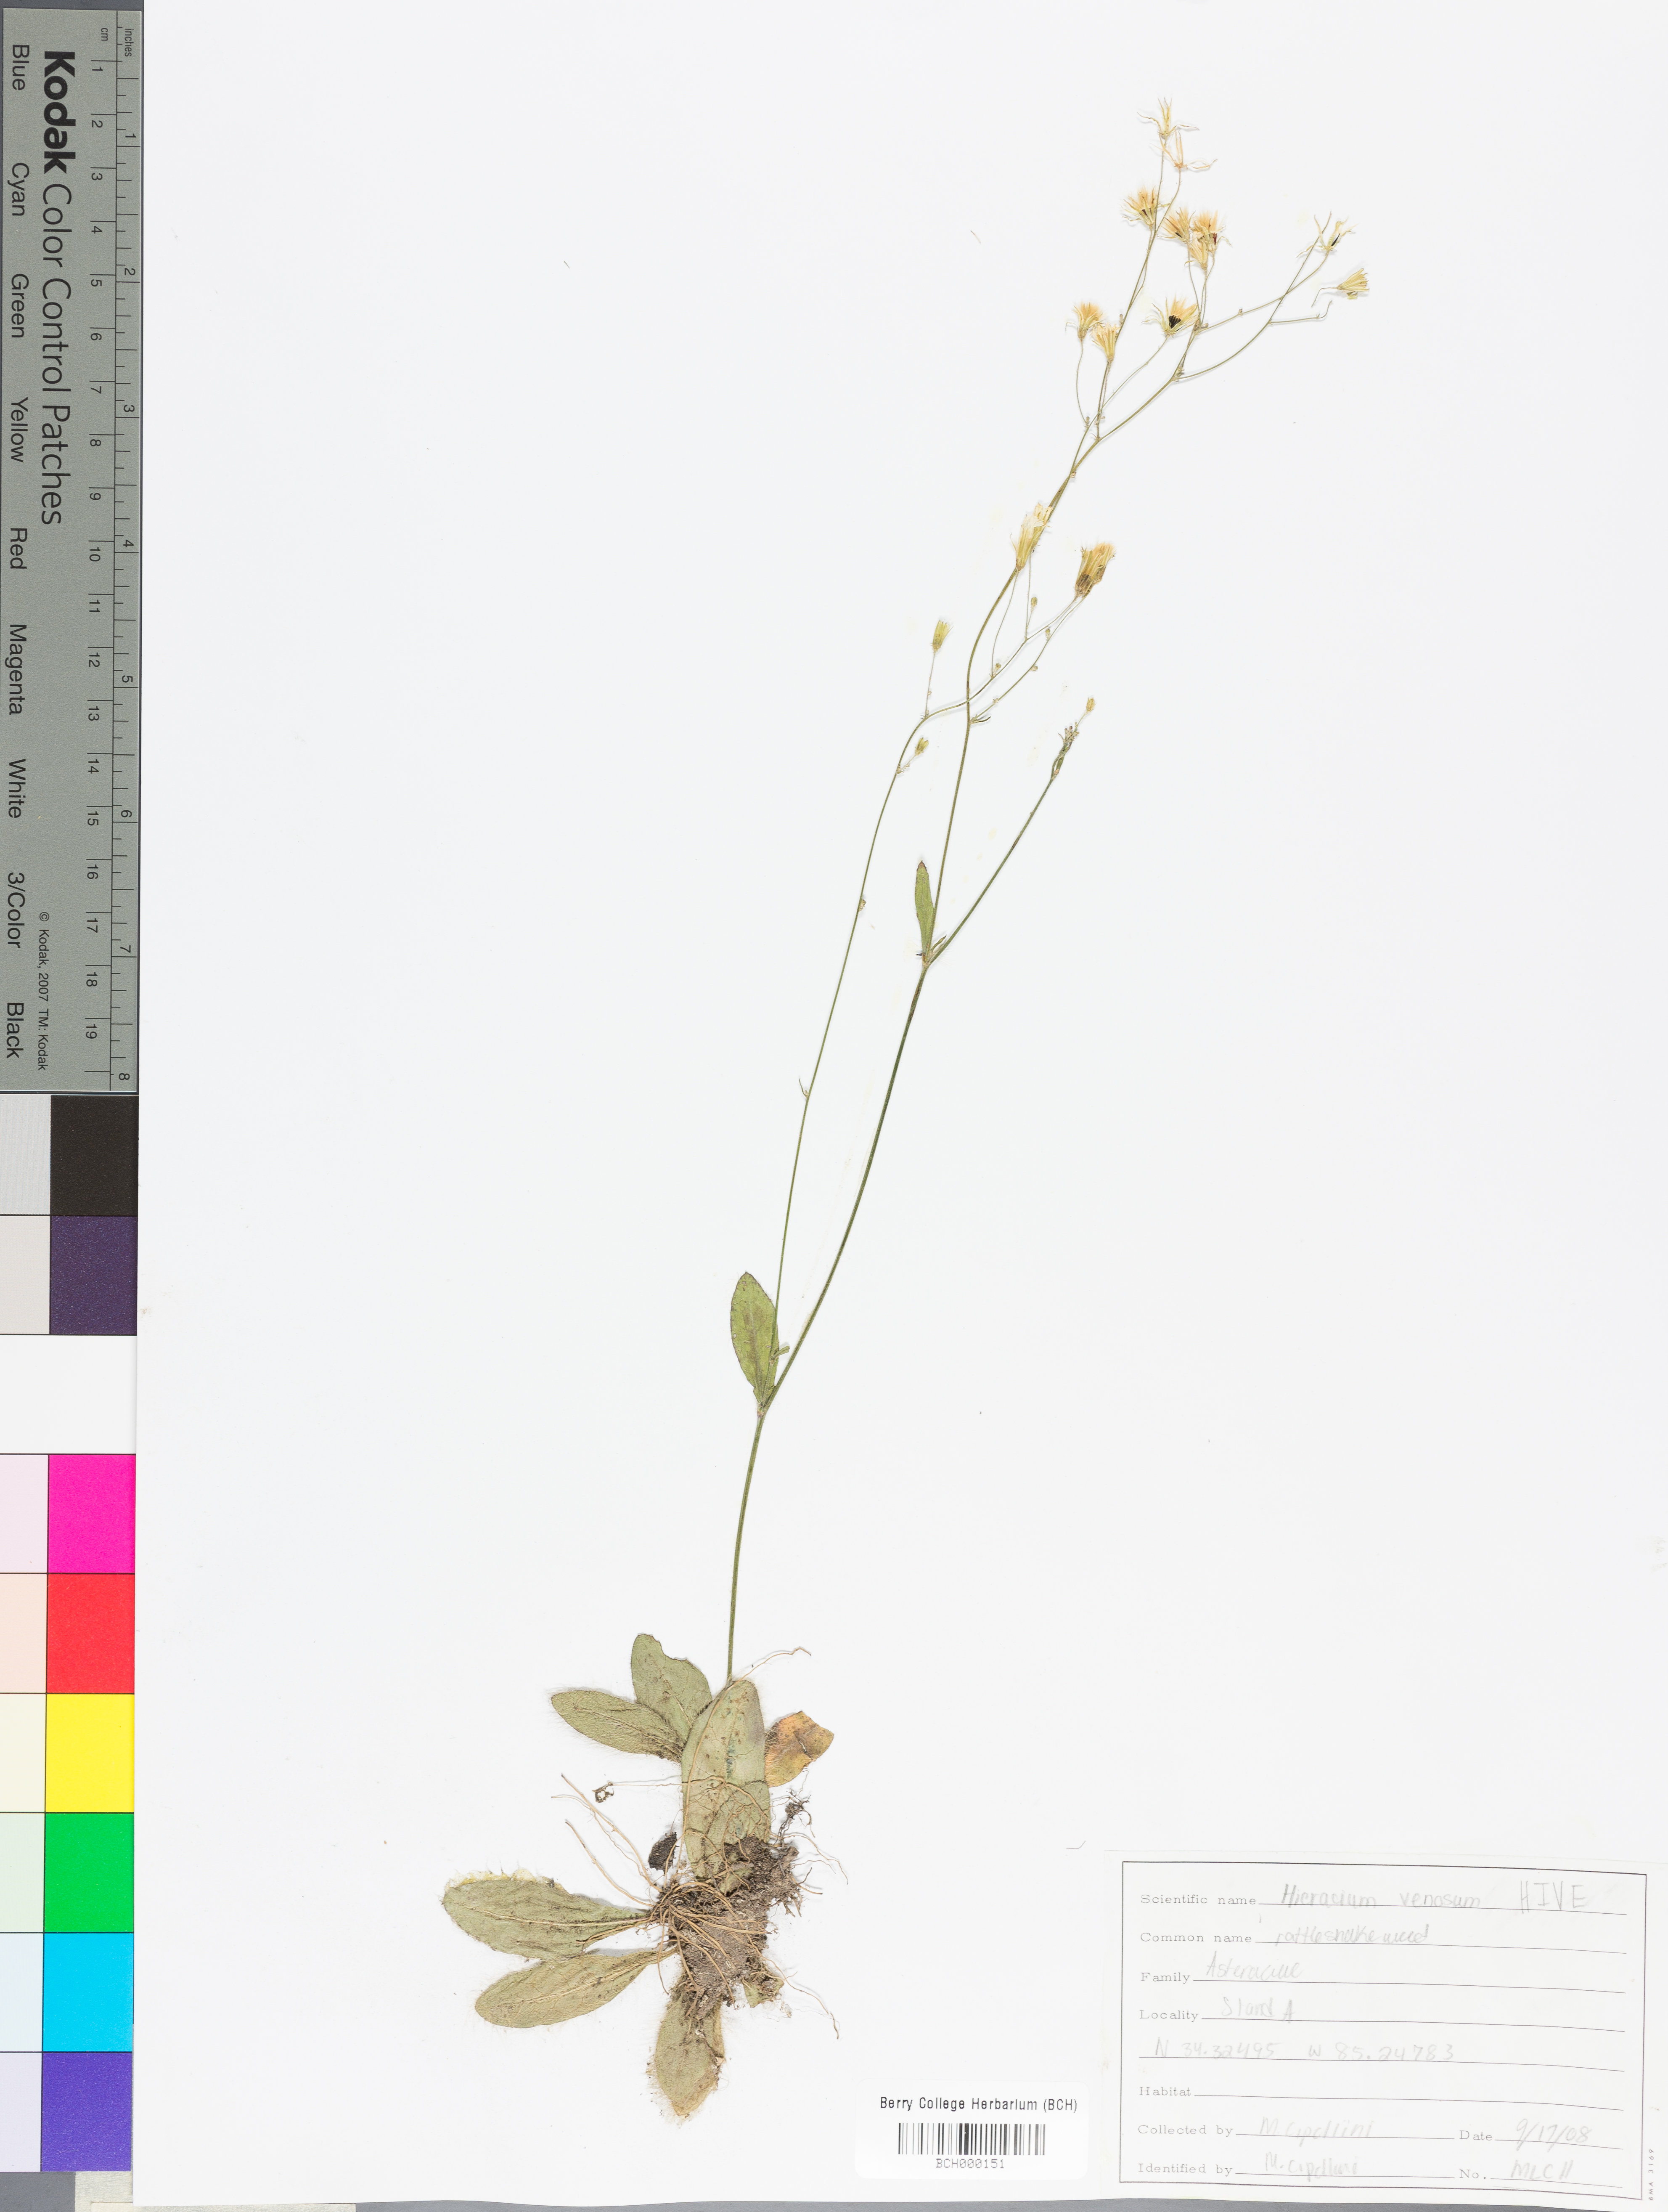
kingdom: Plantae
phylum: Tracheophyta
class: Magnoliopsida
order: Asterales
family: Asteraceae
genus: Hieracium
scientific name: Hieracium venosum
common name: Rattlesnake hawkweed
